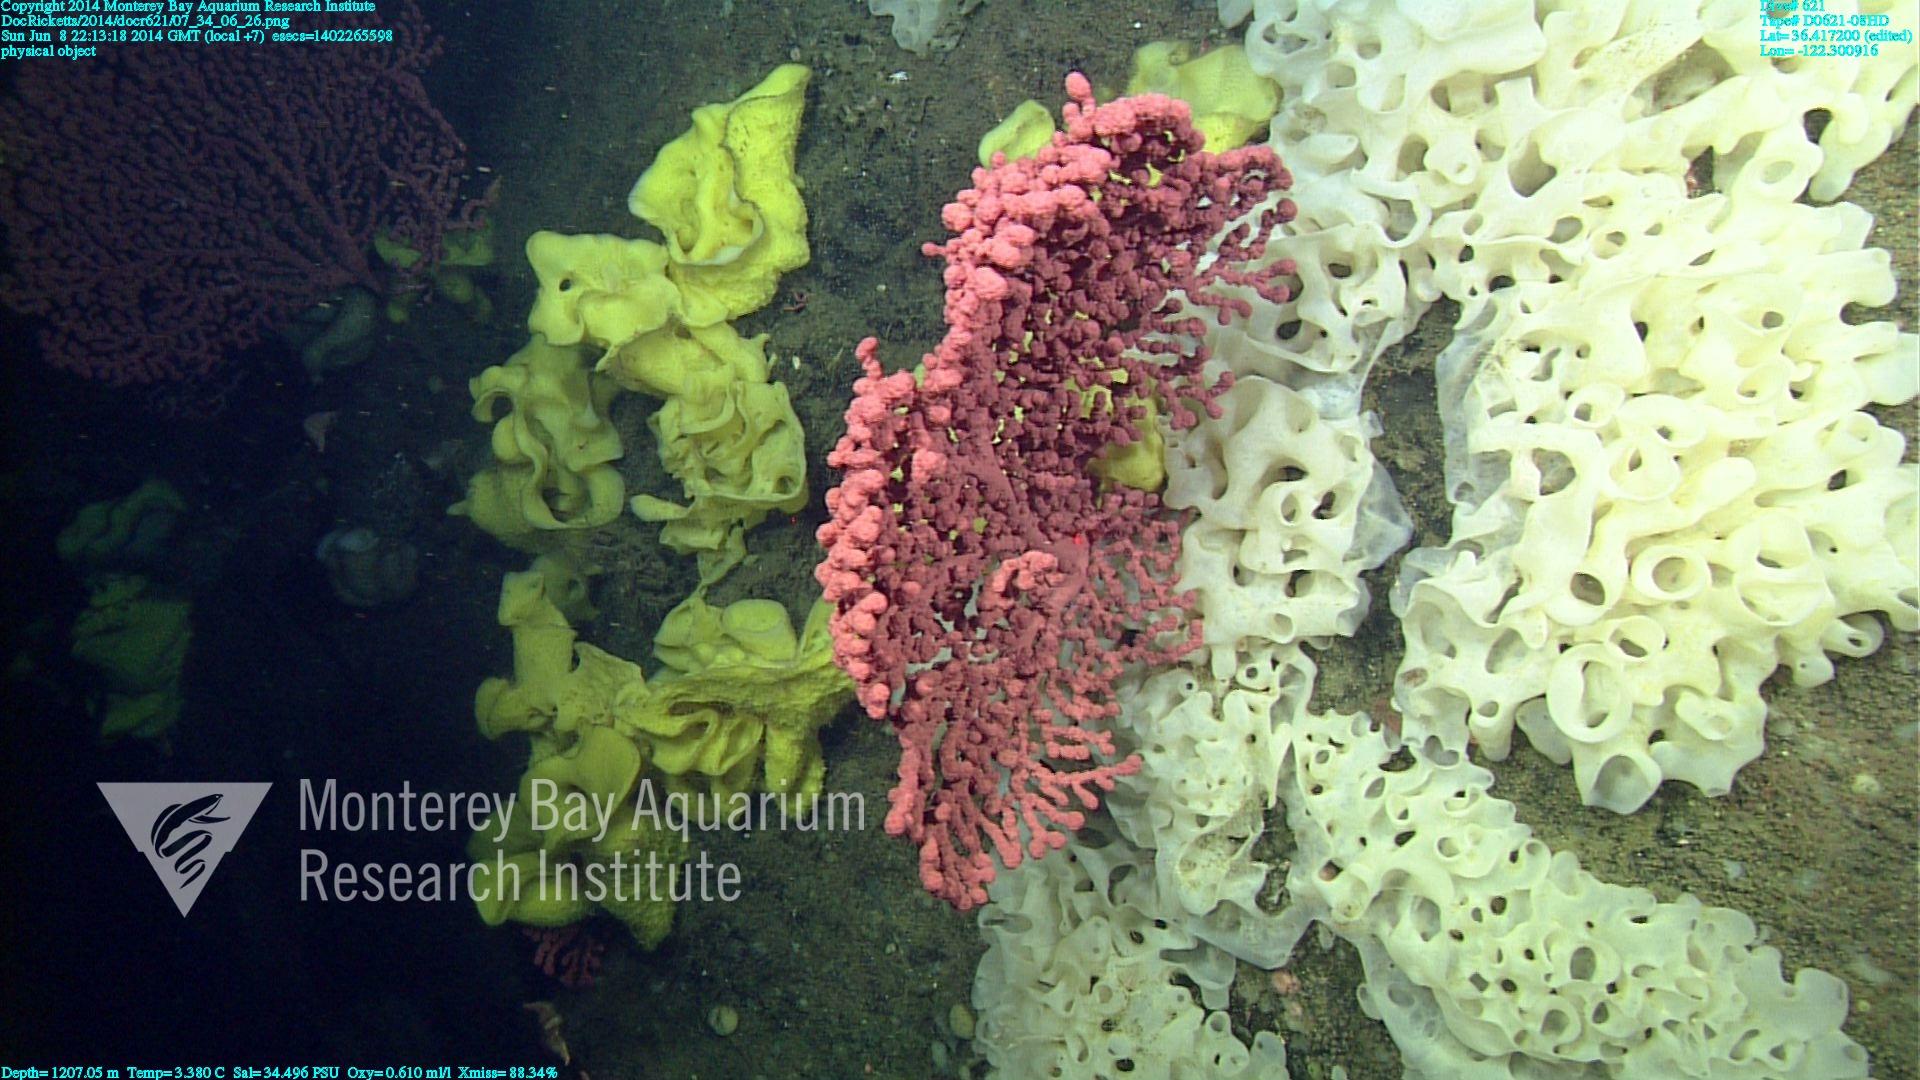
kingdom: Animalia
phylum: Cnidaria
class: Anthozoa
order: Scleralcyonacea
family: Coralliidae
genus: Paragorgia
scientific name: Paragorgia arborea
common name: Bubble gum coral
